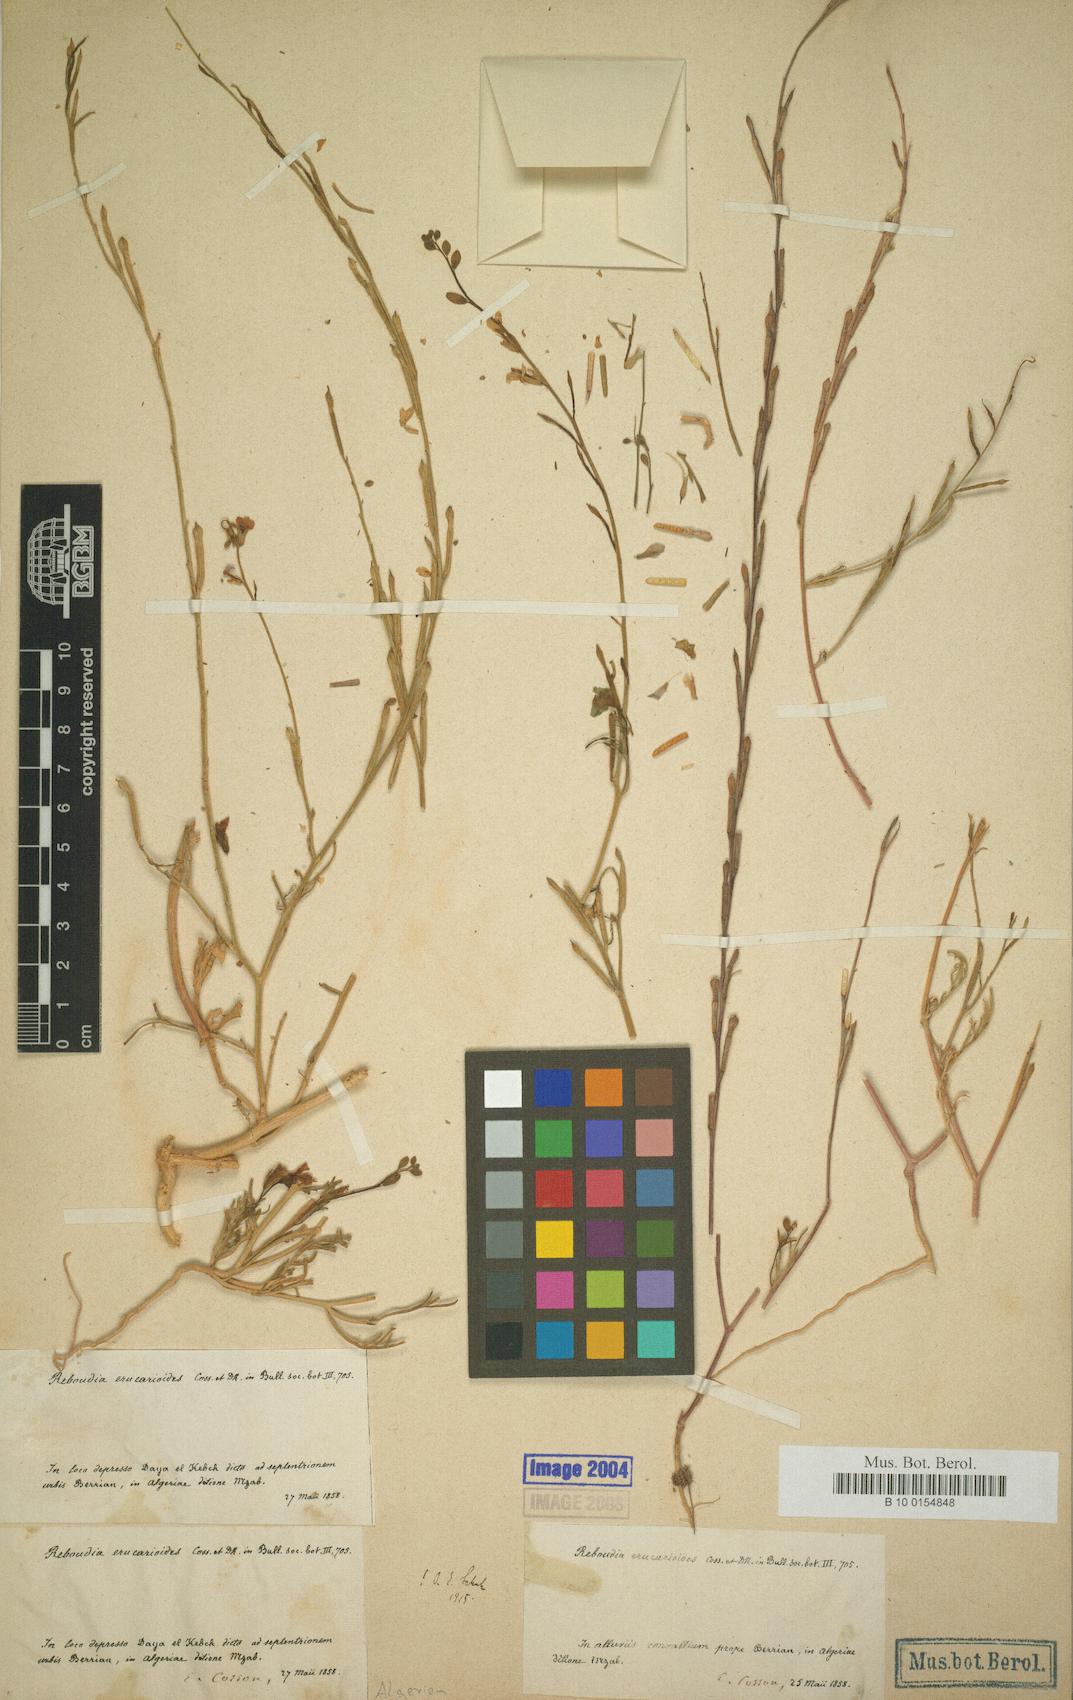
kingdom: Plantae
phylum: Tracheophyta
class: Magnoliopsida
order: Brassicales
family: Brassicaceae
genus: Erucaria
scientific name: Erucaria erucarioides
